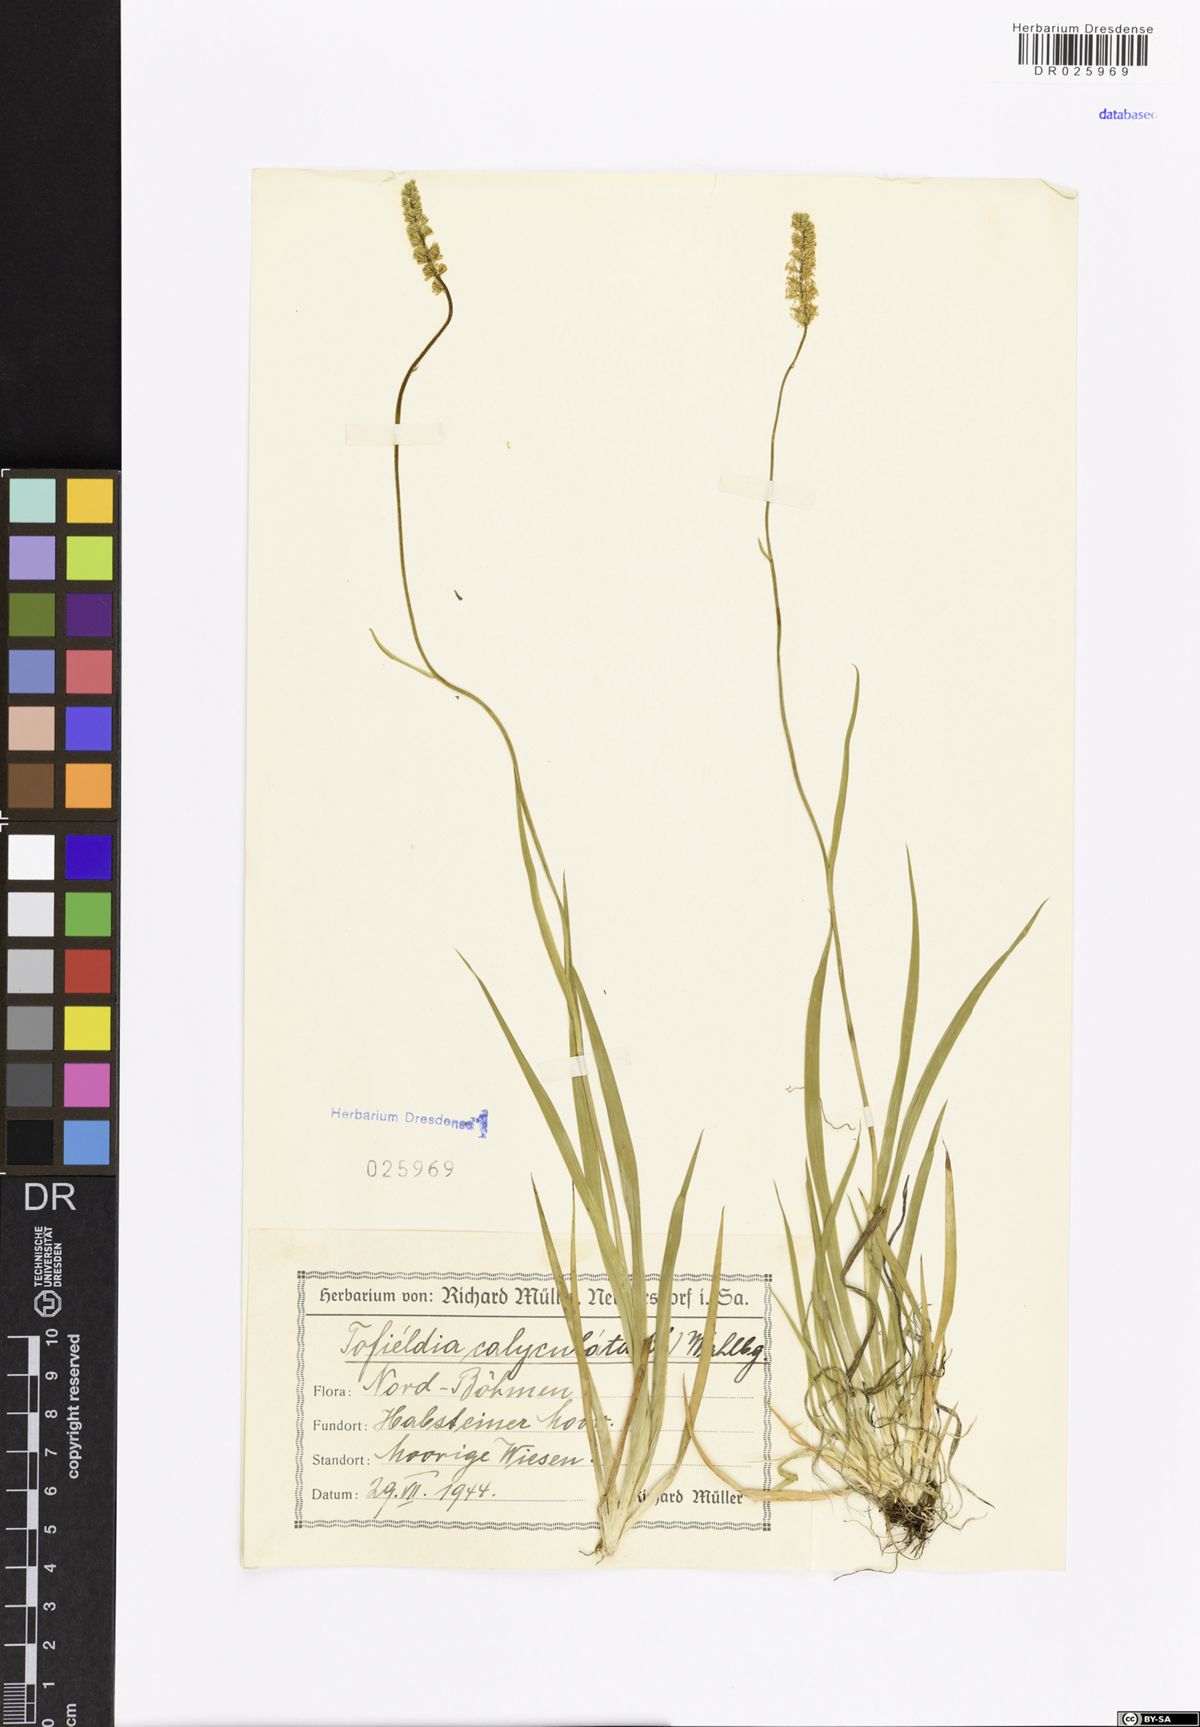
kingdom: Plantae
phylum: Tracheophyta
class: Liliopsida
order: Alismatales
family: Tofieldiaceae
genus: Tofieldia
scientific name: Tofieldia calyculata
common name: German-asphodel
